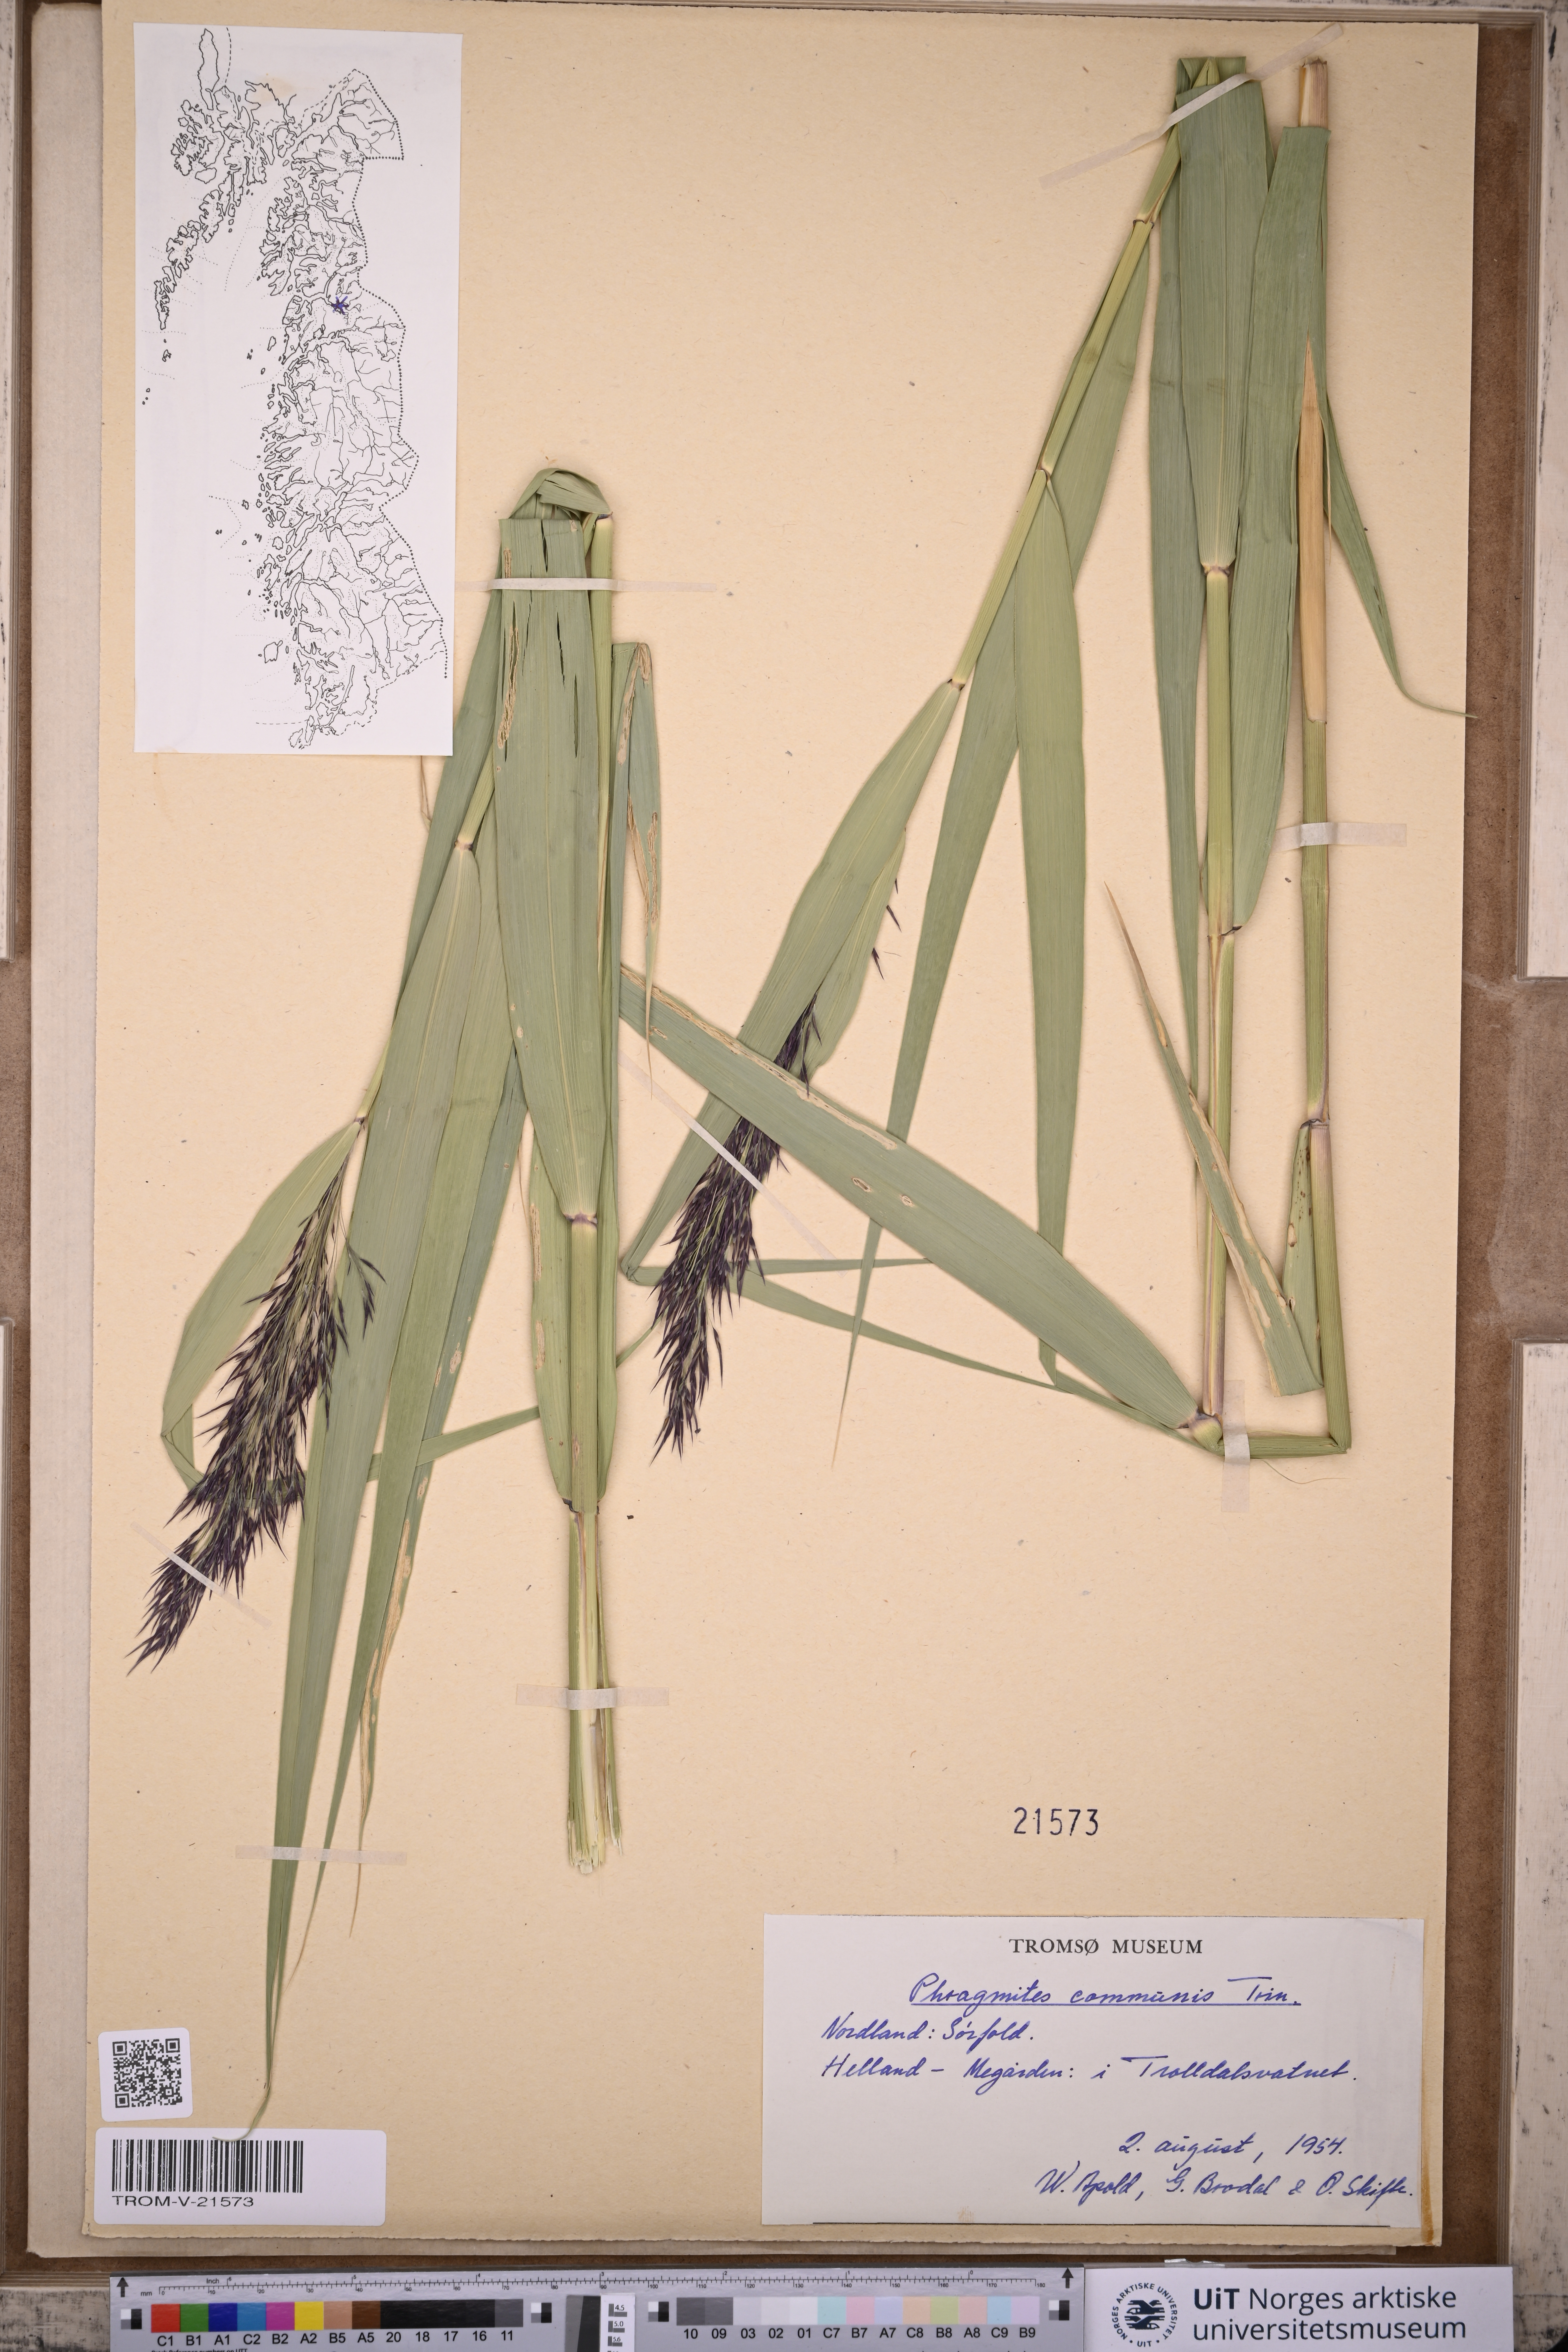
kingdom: Plantae
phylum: Tracheophyta
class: Liliopsida
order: Poales
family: Poaceae
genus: Phragmites
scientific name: Phragmites australis
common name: Common reed
